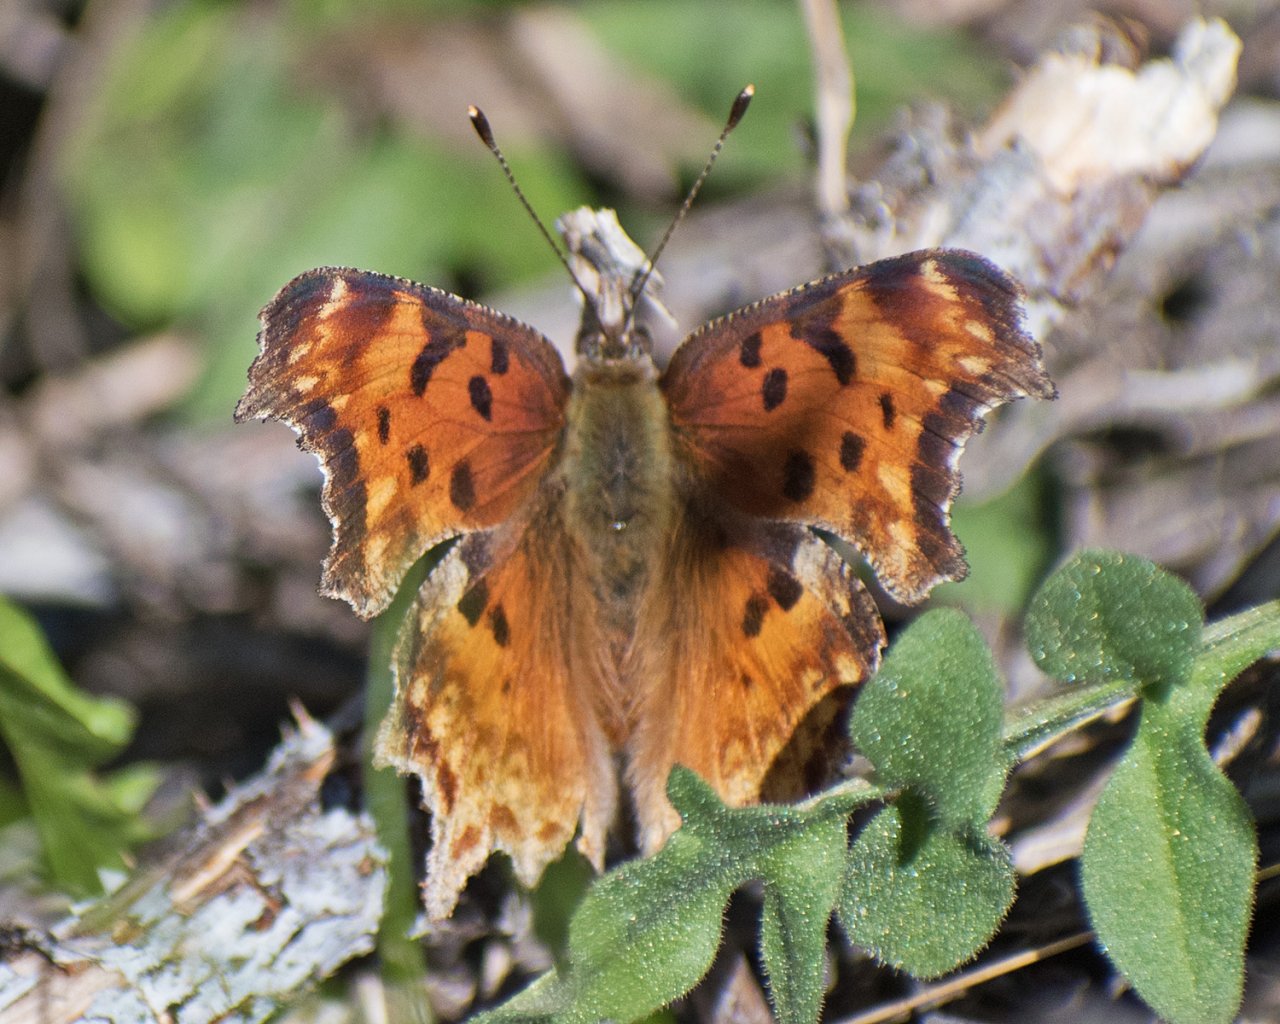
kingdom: Animalia
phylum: Arthropoda
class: Insecta
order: Lepidoptera
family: Nymphalidae
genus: Polygonia
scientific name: Polygonia gracilis
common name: Hoary Comma
